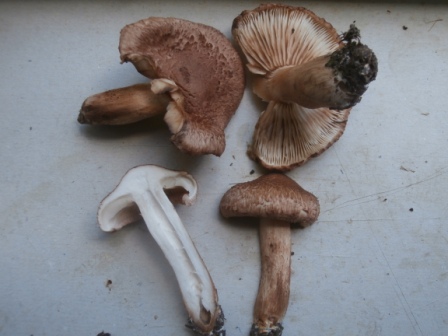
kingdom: Fungi
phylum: Basidiomycota
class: Agaricomycetes
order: Agaricales
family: Tricholomataceae
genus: Tricholoma
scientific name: Tricholoma vaccinum
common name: ko-ridderhat
